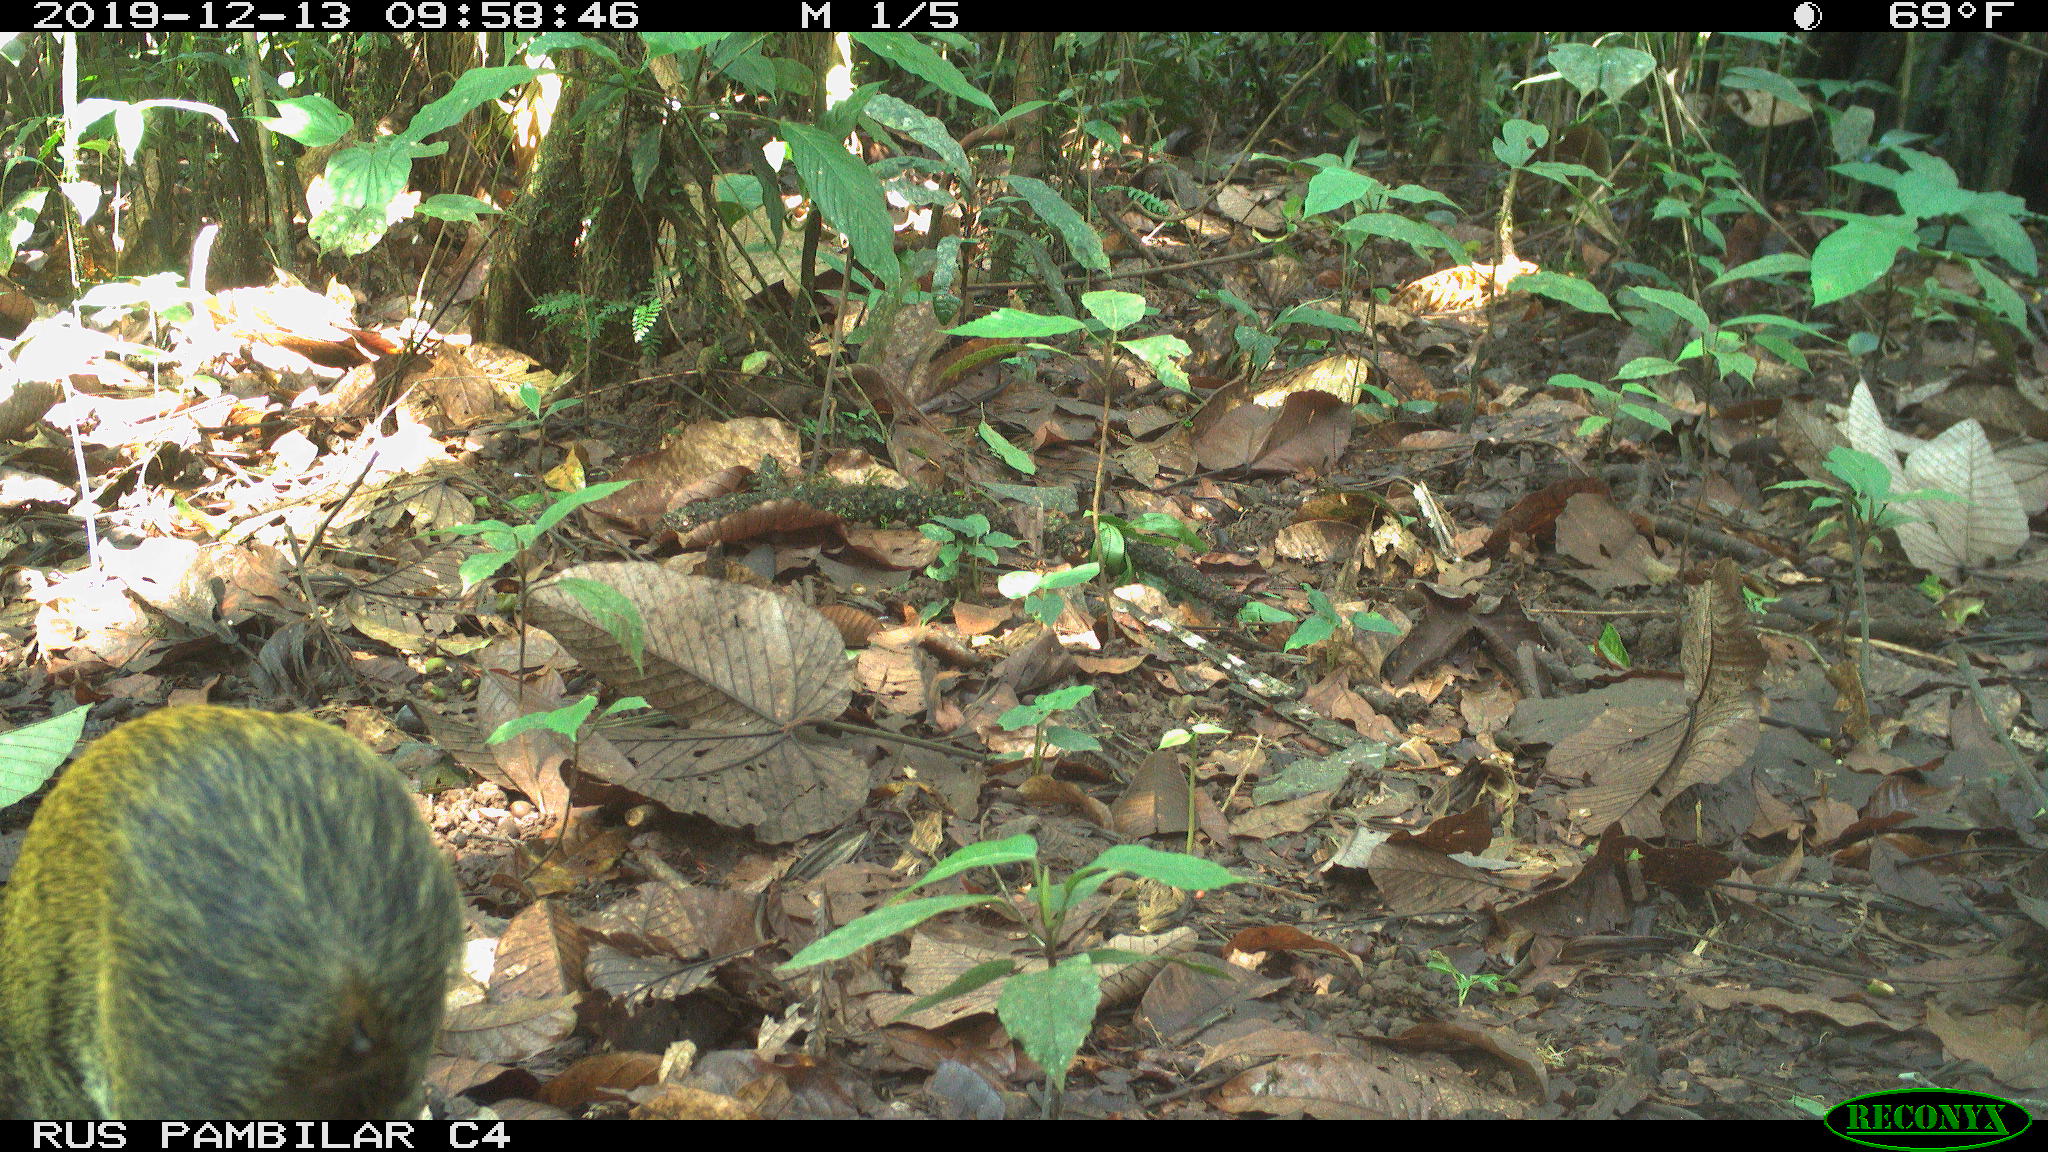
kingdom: Animalia
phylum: Chordata
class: Mammalia
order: Rodentia
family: Dasyproctidae
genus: Dasyprocta
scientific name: Dasyprocta punctata
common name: Central american agouti
